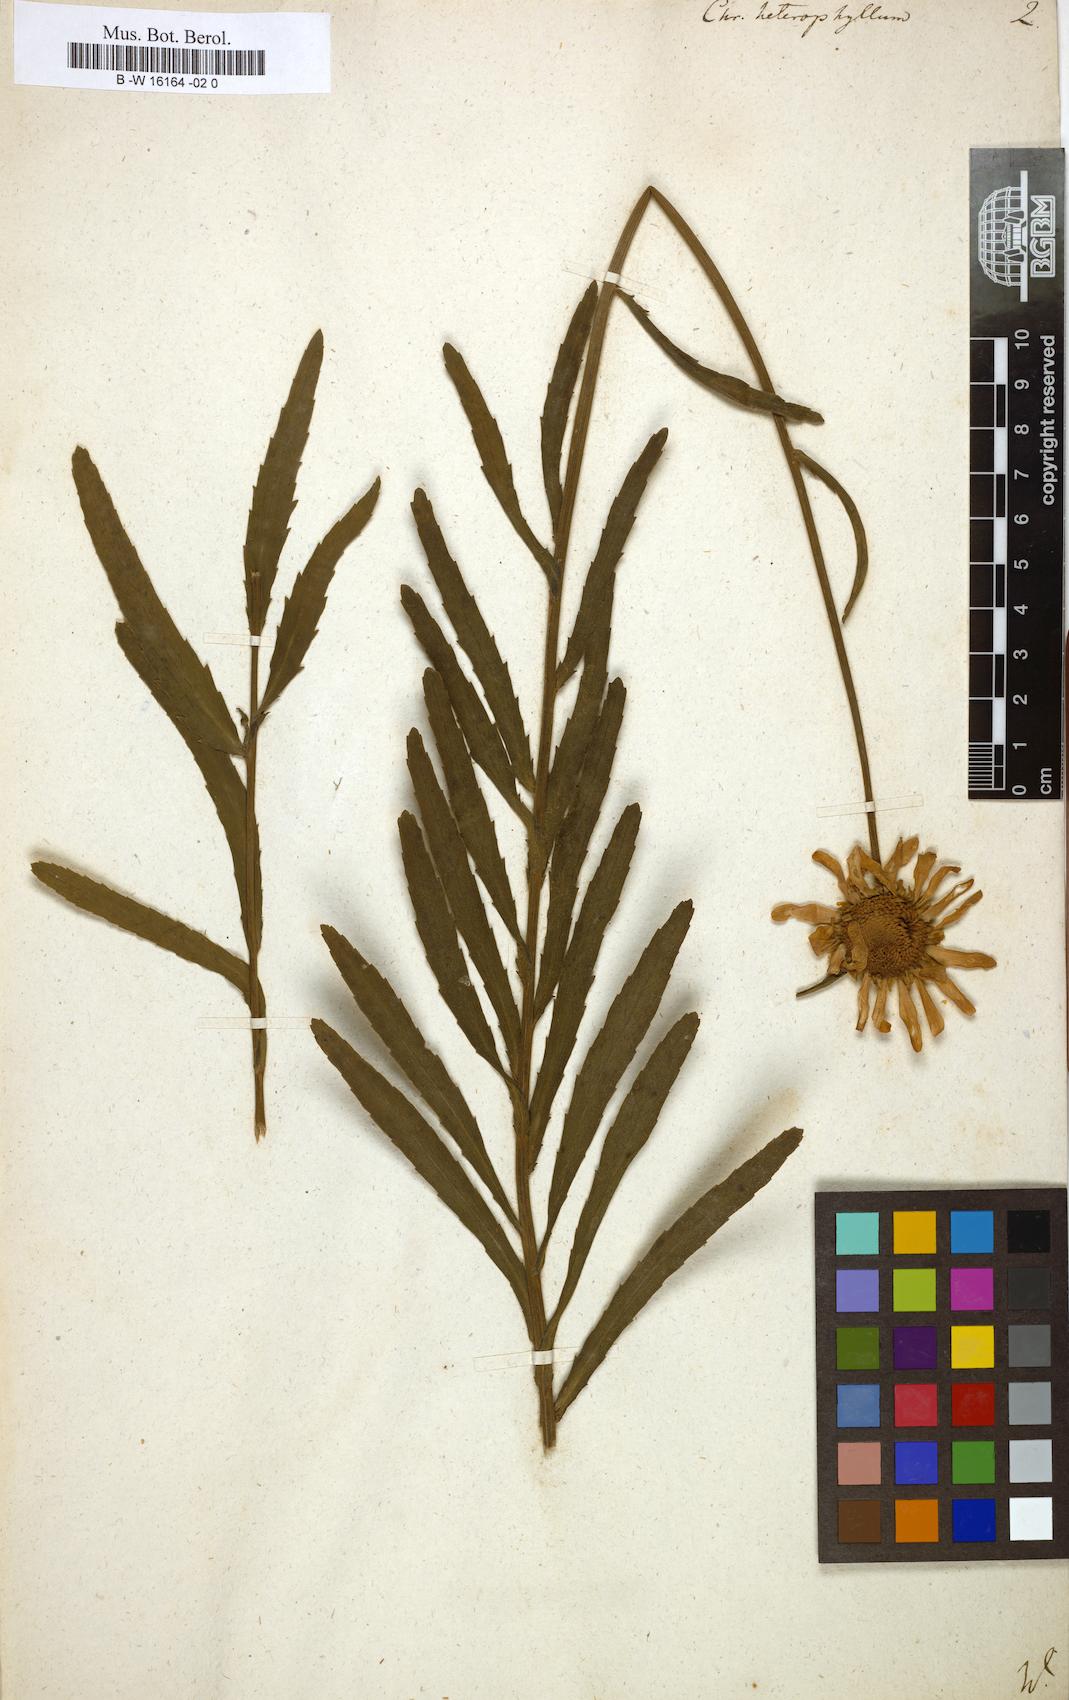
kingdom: Plantae
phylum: Tracheophyta
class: Magnoliopsida
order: Asterales
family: Asteraceae
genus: Leucanthemum
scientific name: Leucanthemum heterophyllum
